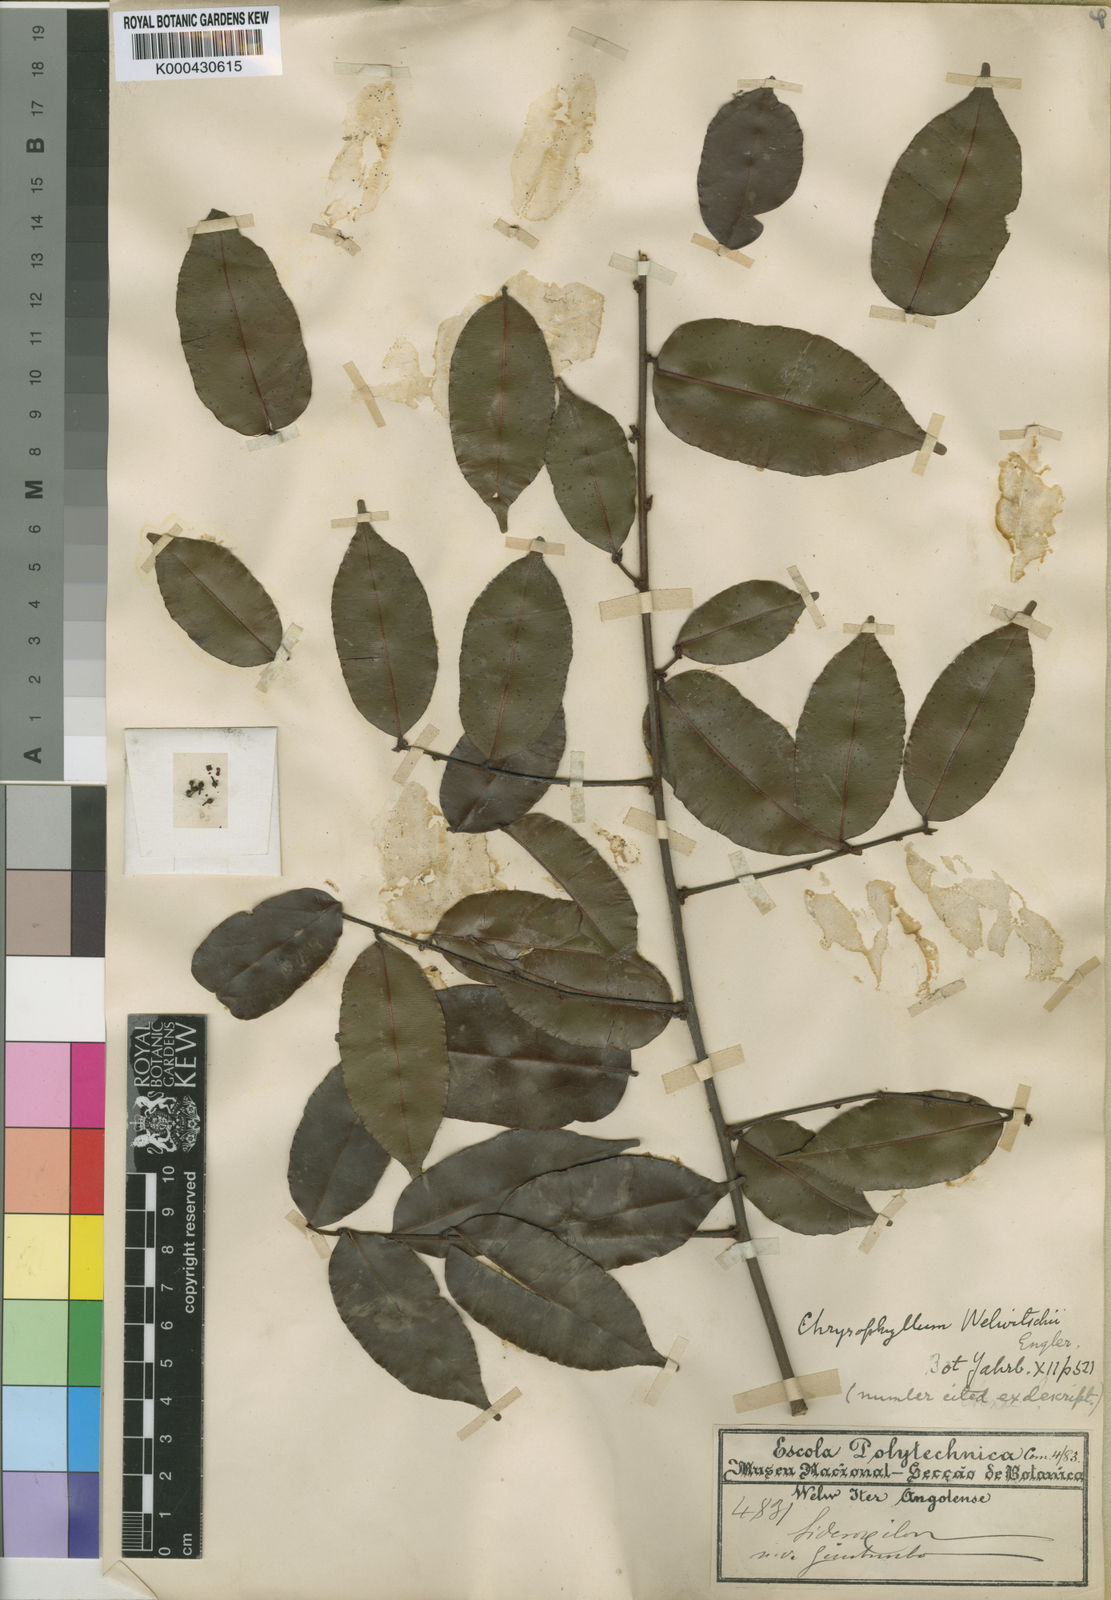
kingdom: Plantae
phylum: Tracheophyta
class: Magnoliopsida
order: Ericales
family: Sapotaceae
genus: Donella
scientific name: Donella welwitschii
